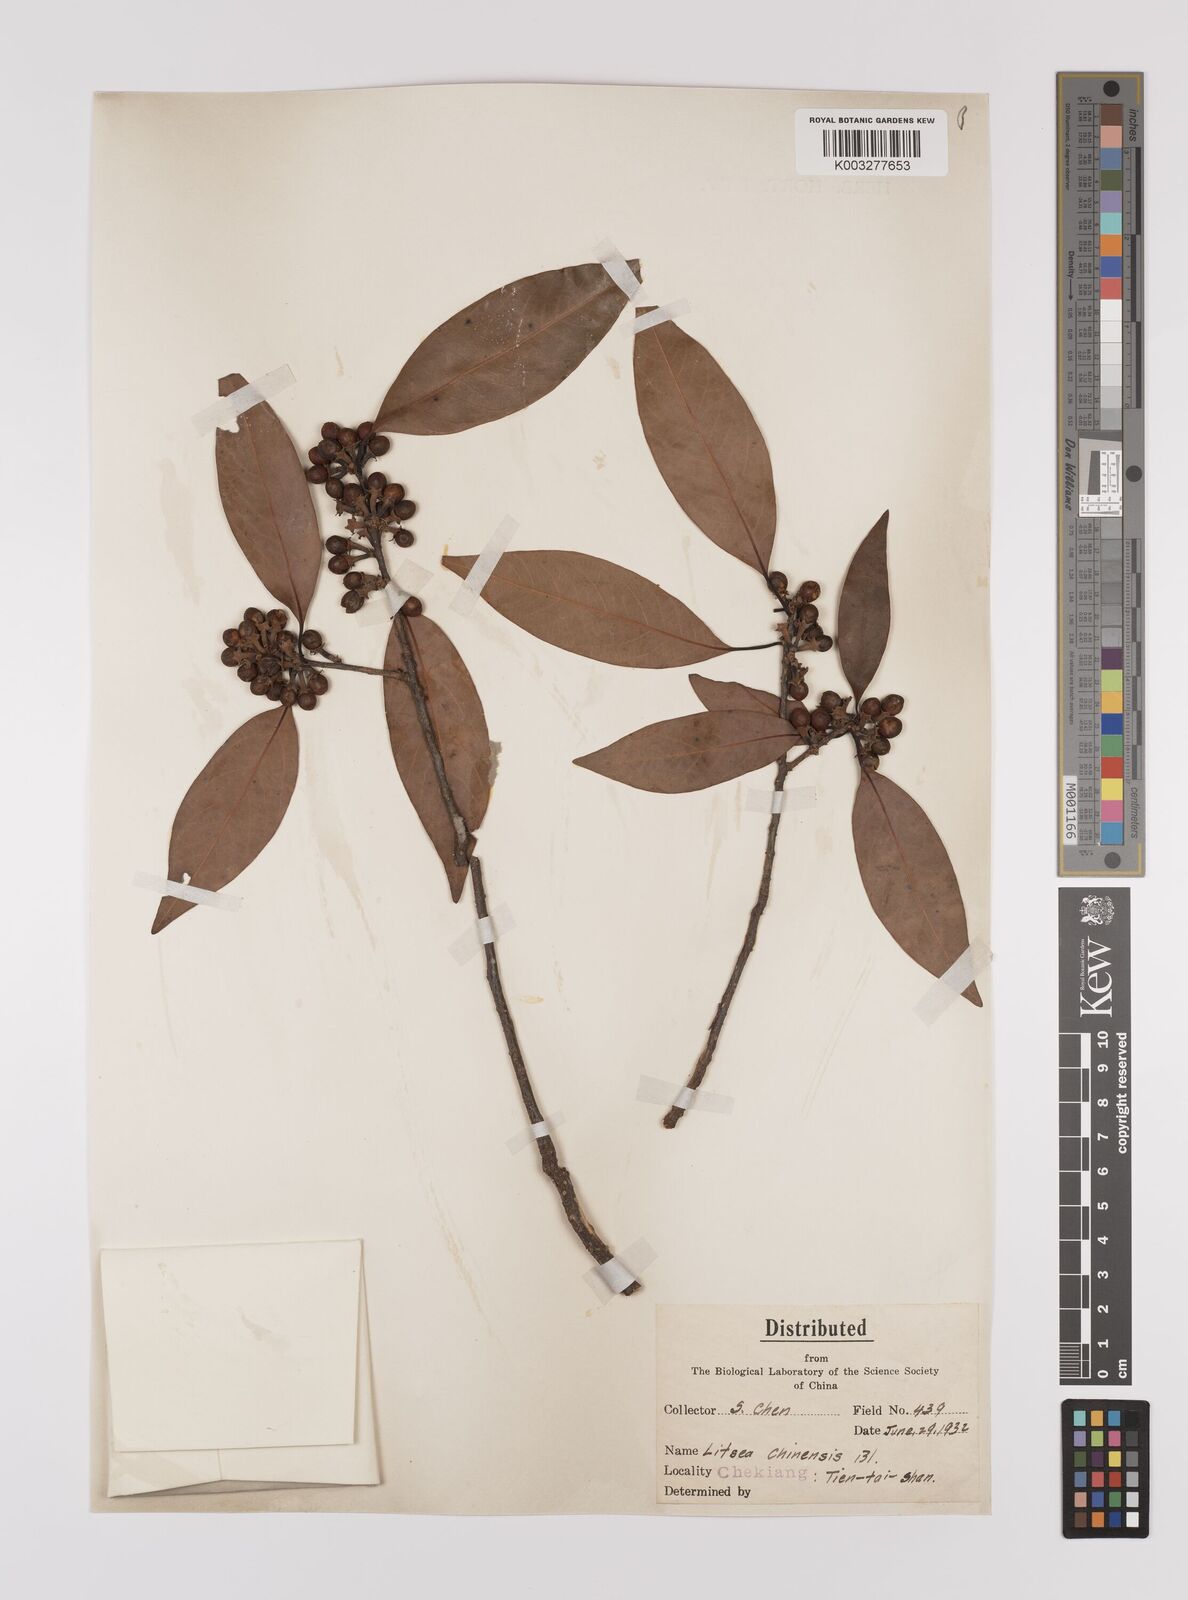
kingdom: Plantae
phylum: Tracheophyta
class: Magnoliopsida
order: Laurales
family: Lauraceae
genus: Litsea
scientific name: Litsea rotundifolia
